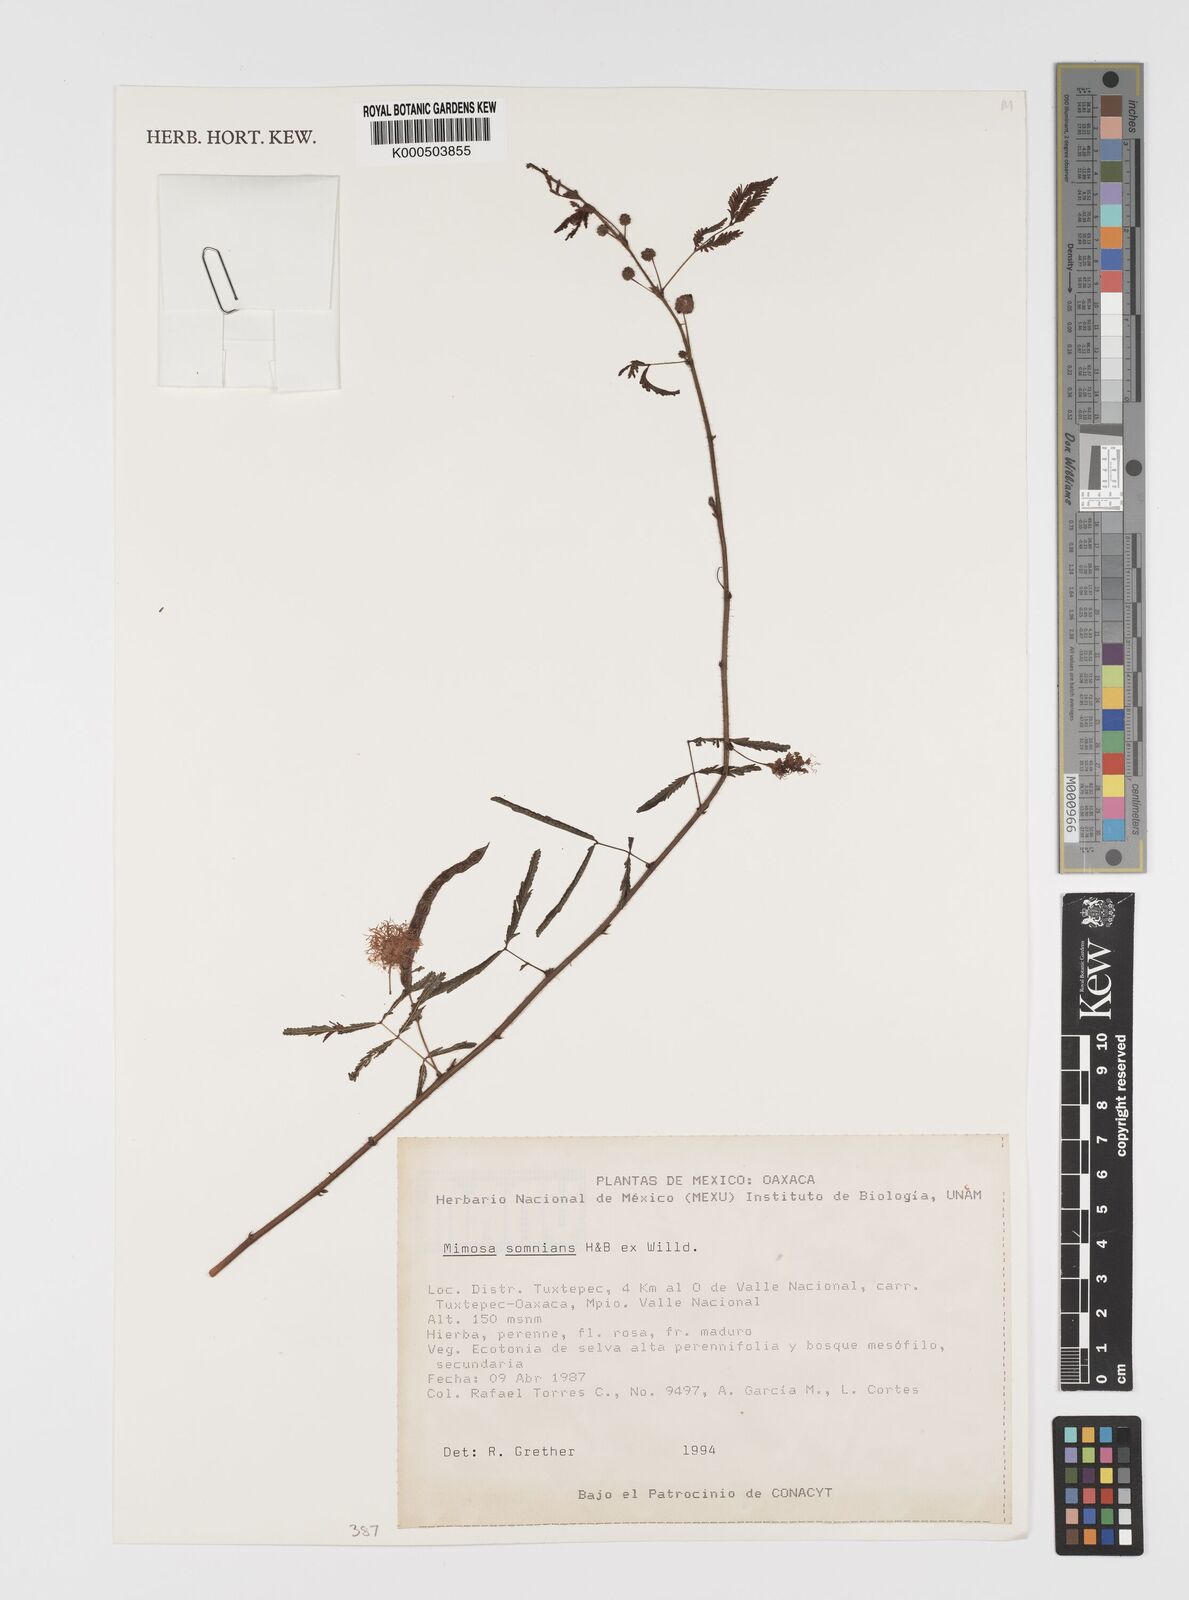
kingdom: Plantae
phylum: Tracheophyta
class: Magnoliopsida
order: Fabales
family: Fabaceae
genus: Mimosa
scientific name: Mimosa somnians
